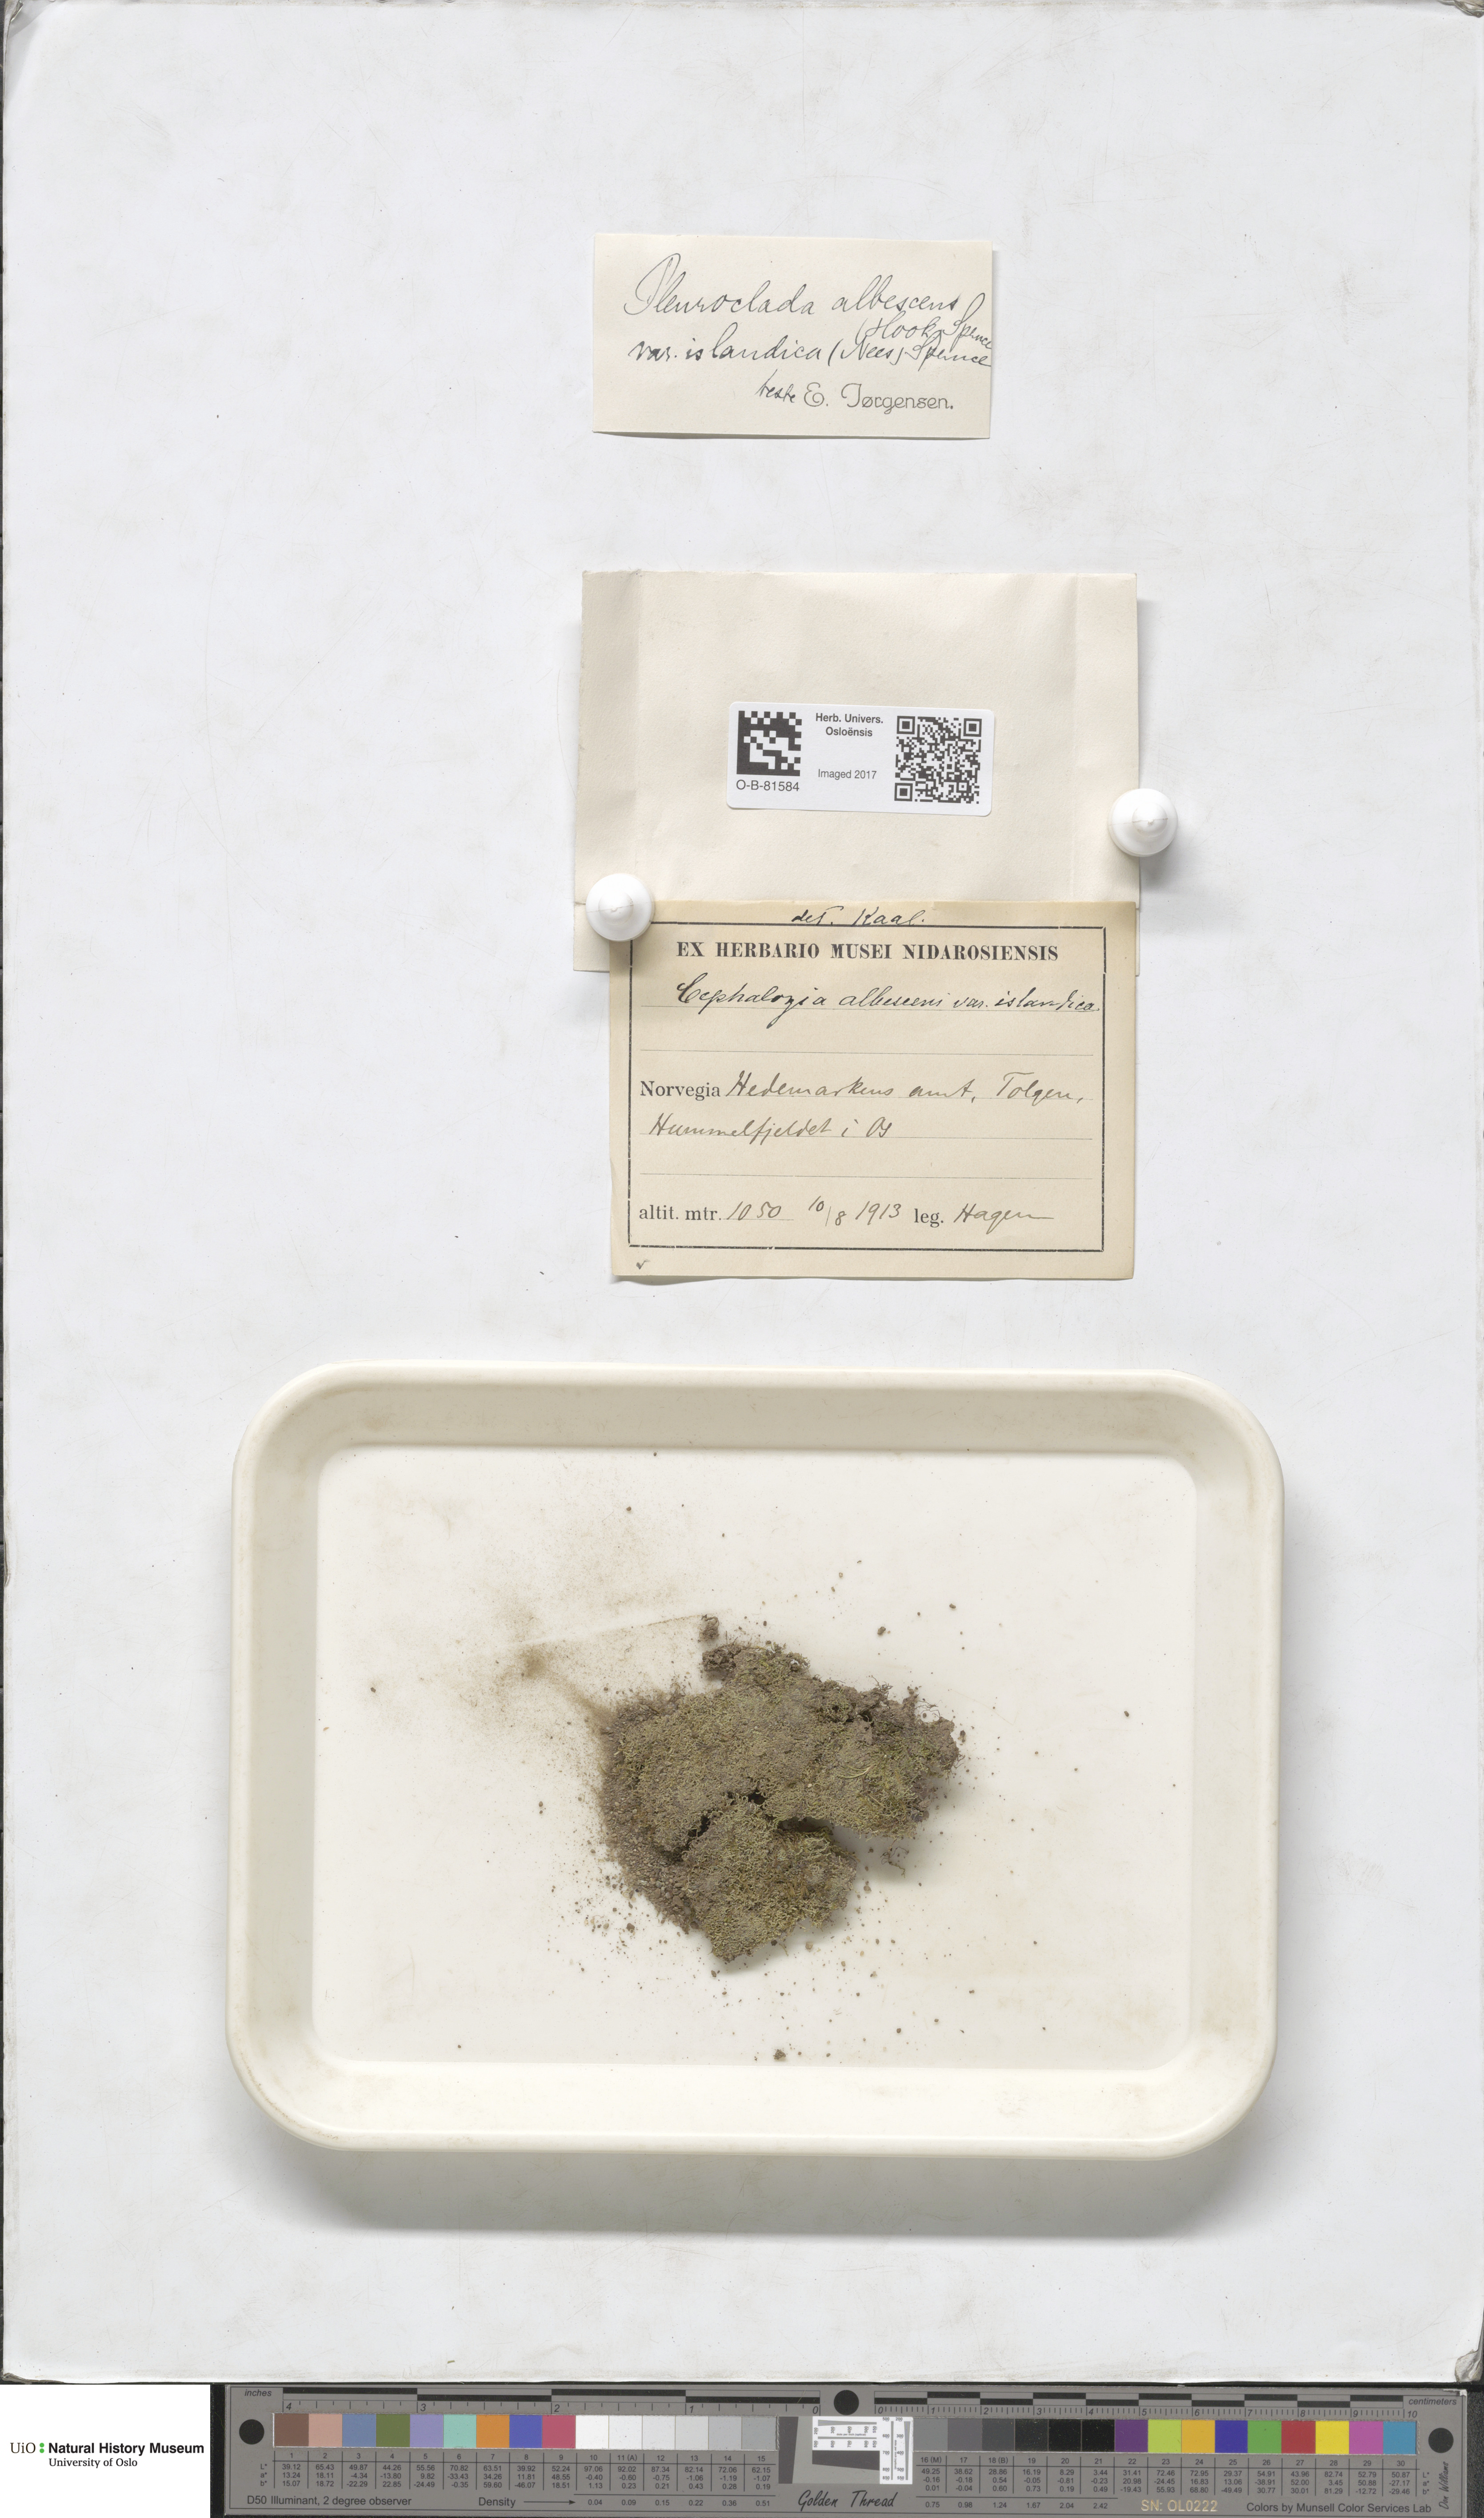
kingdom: Plantae
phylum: Marchantiophyta
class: Jungermanniopsida
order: Jungermanniales
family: Cephaloziaceae
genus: Fuscocephaloziopsis
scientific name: Fuscocephaloziopsis albescens
